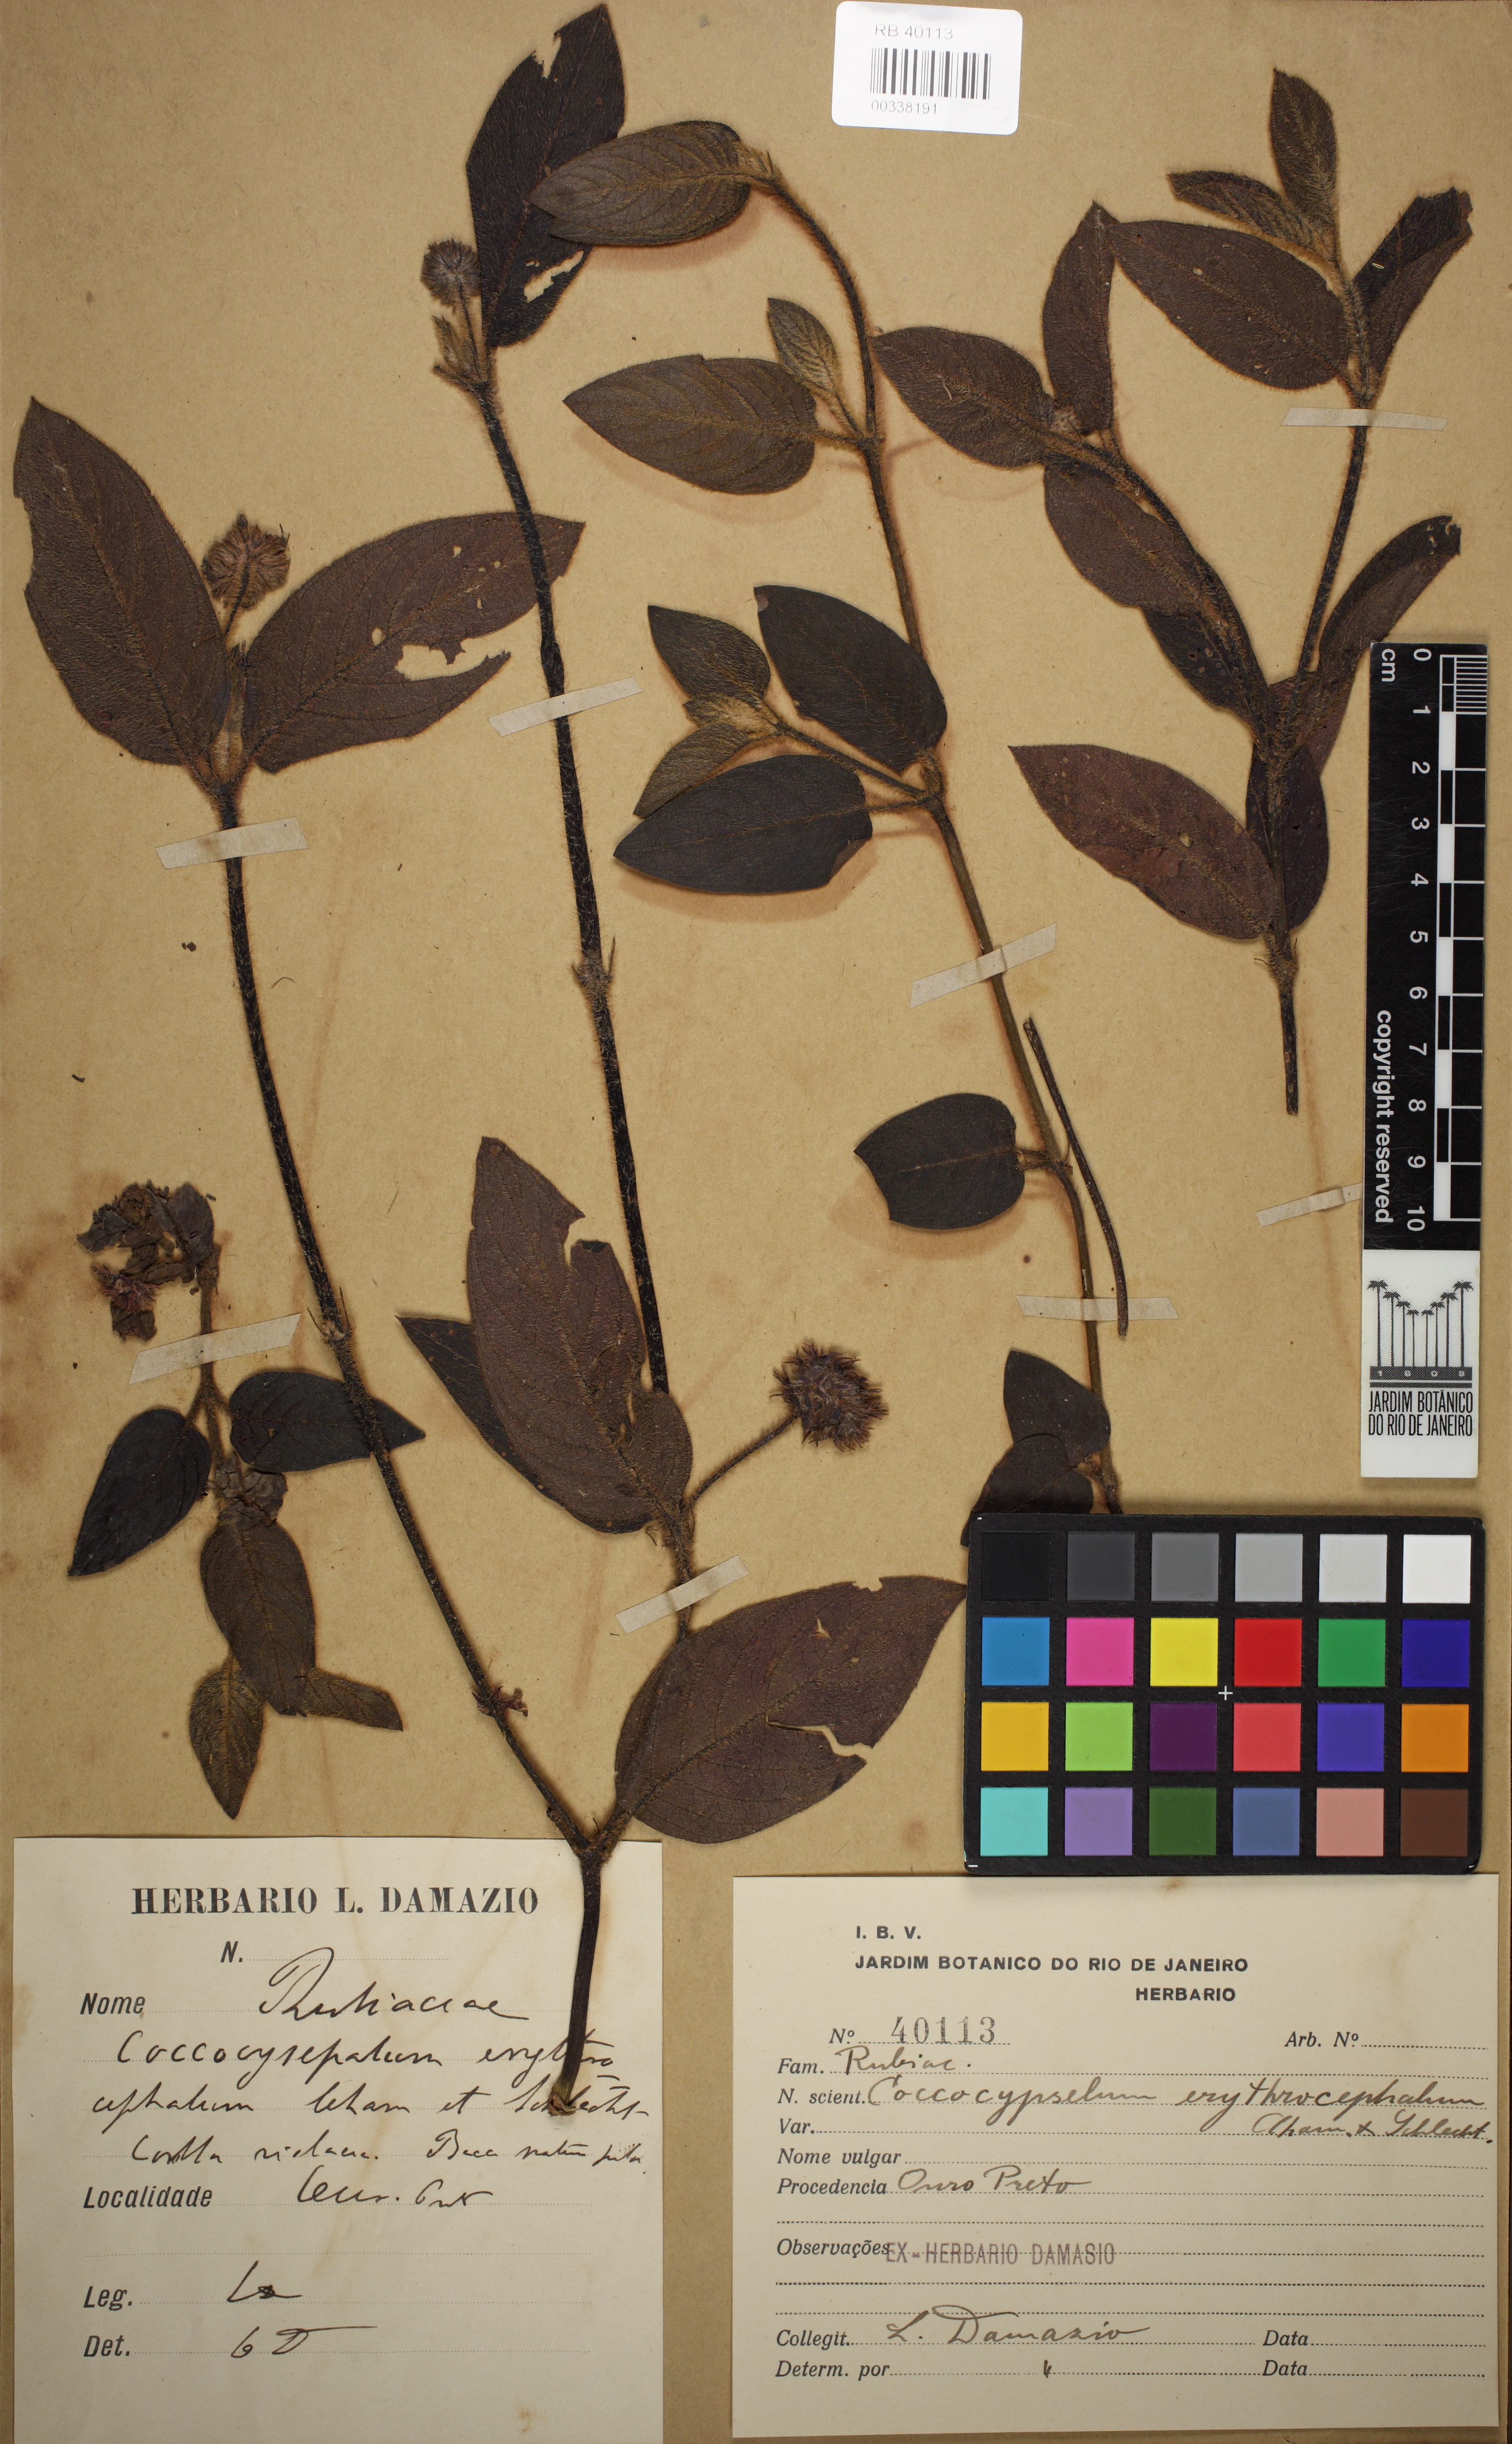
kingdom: Plantae
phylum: Tracheophyta
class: Magnoliopsida
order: Gentianales
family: Rubiaceae
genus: Coccocypselum
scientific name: Coccocypselum erythrocephalum
